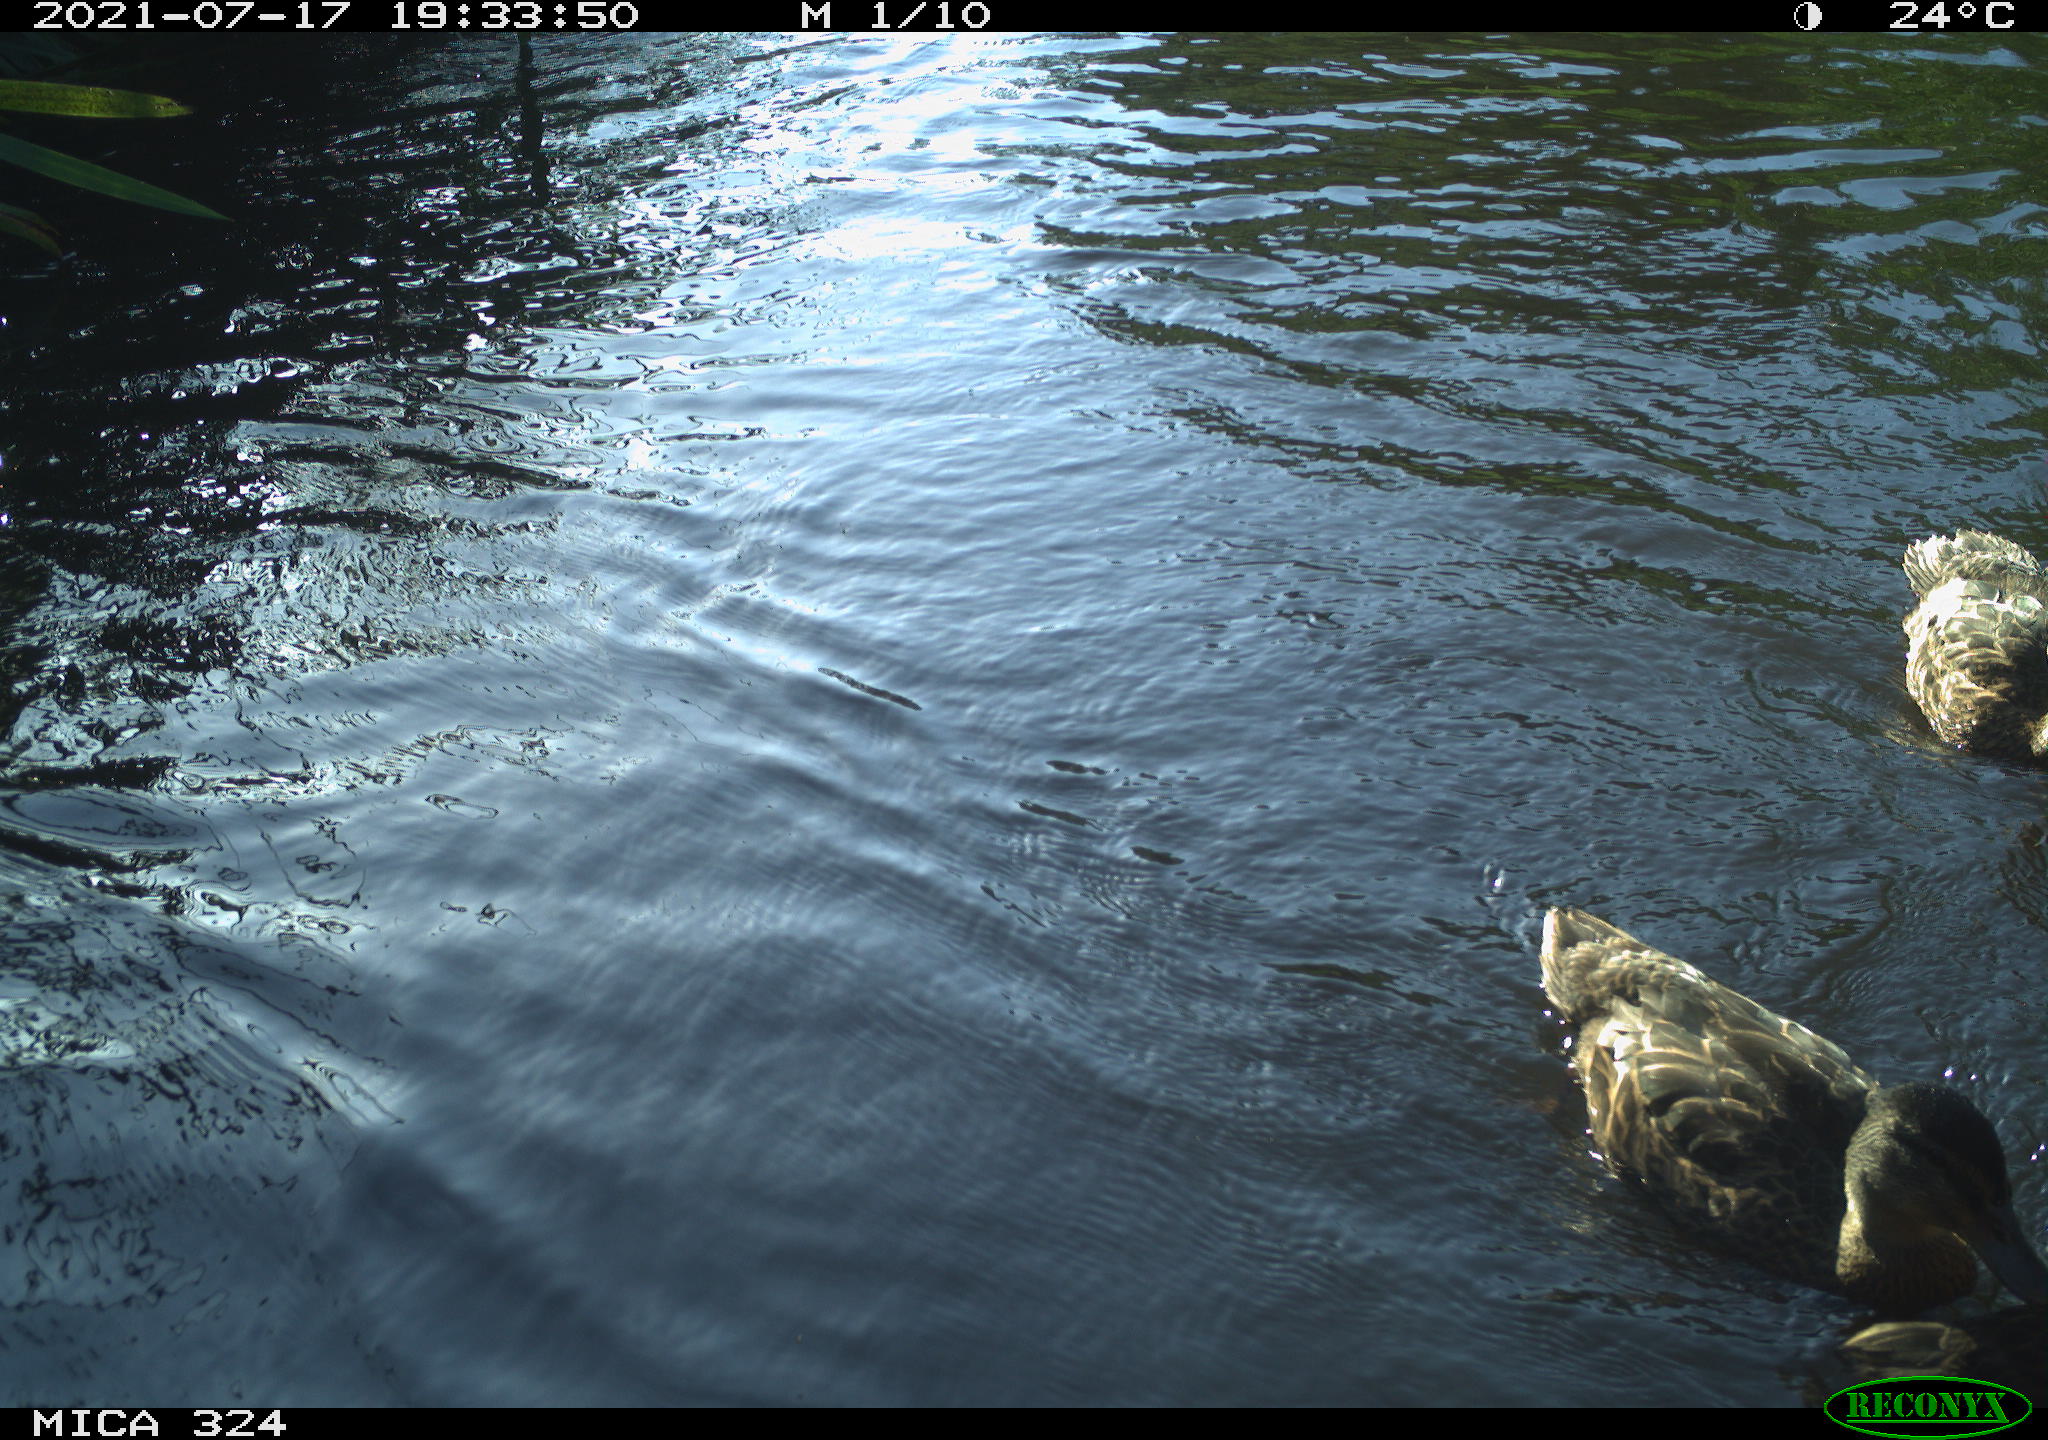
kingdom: Animalia
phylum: Chordata
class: Aves
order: Anseriformes
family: Anatidae
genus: Anas
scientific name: Anas platyrhynchos
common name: Mallard
